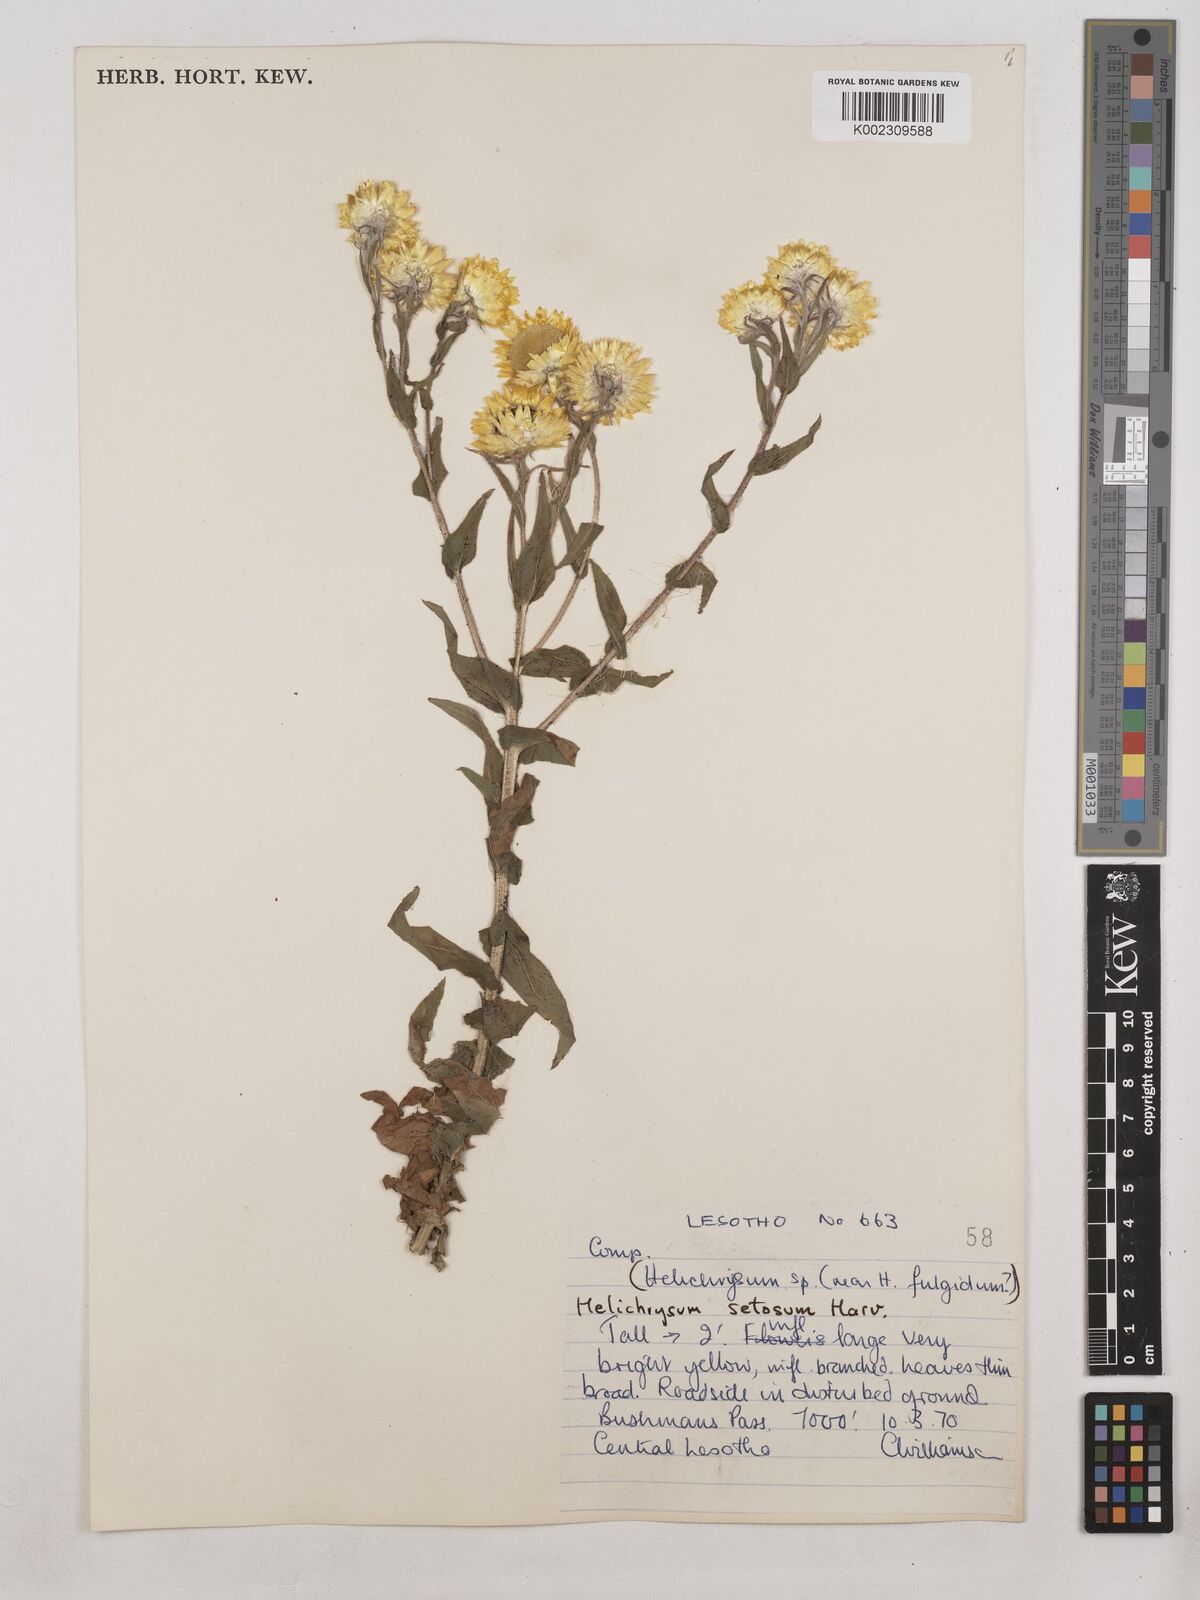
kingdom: Plantae
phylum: Tracheophyta
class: Magnoliopsida
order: Asterales
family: Asteraceae
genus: Helichrysum
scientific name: Helichrysum cooperi
